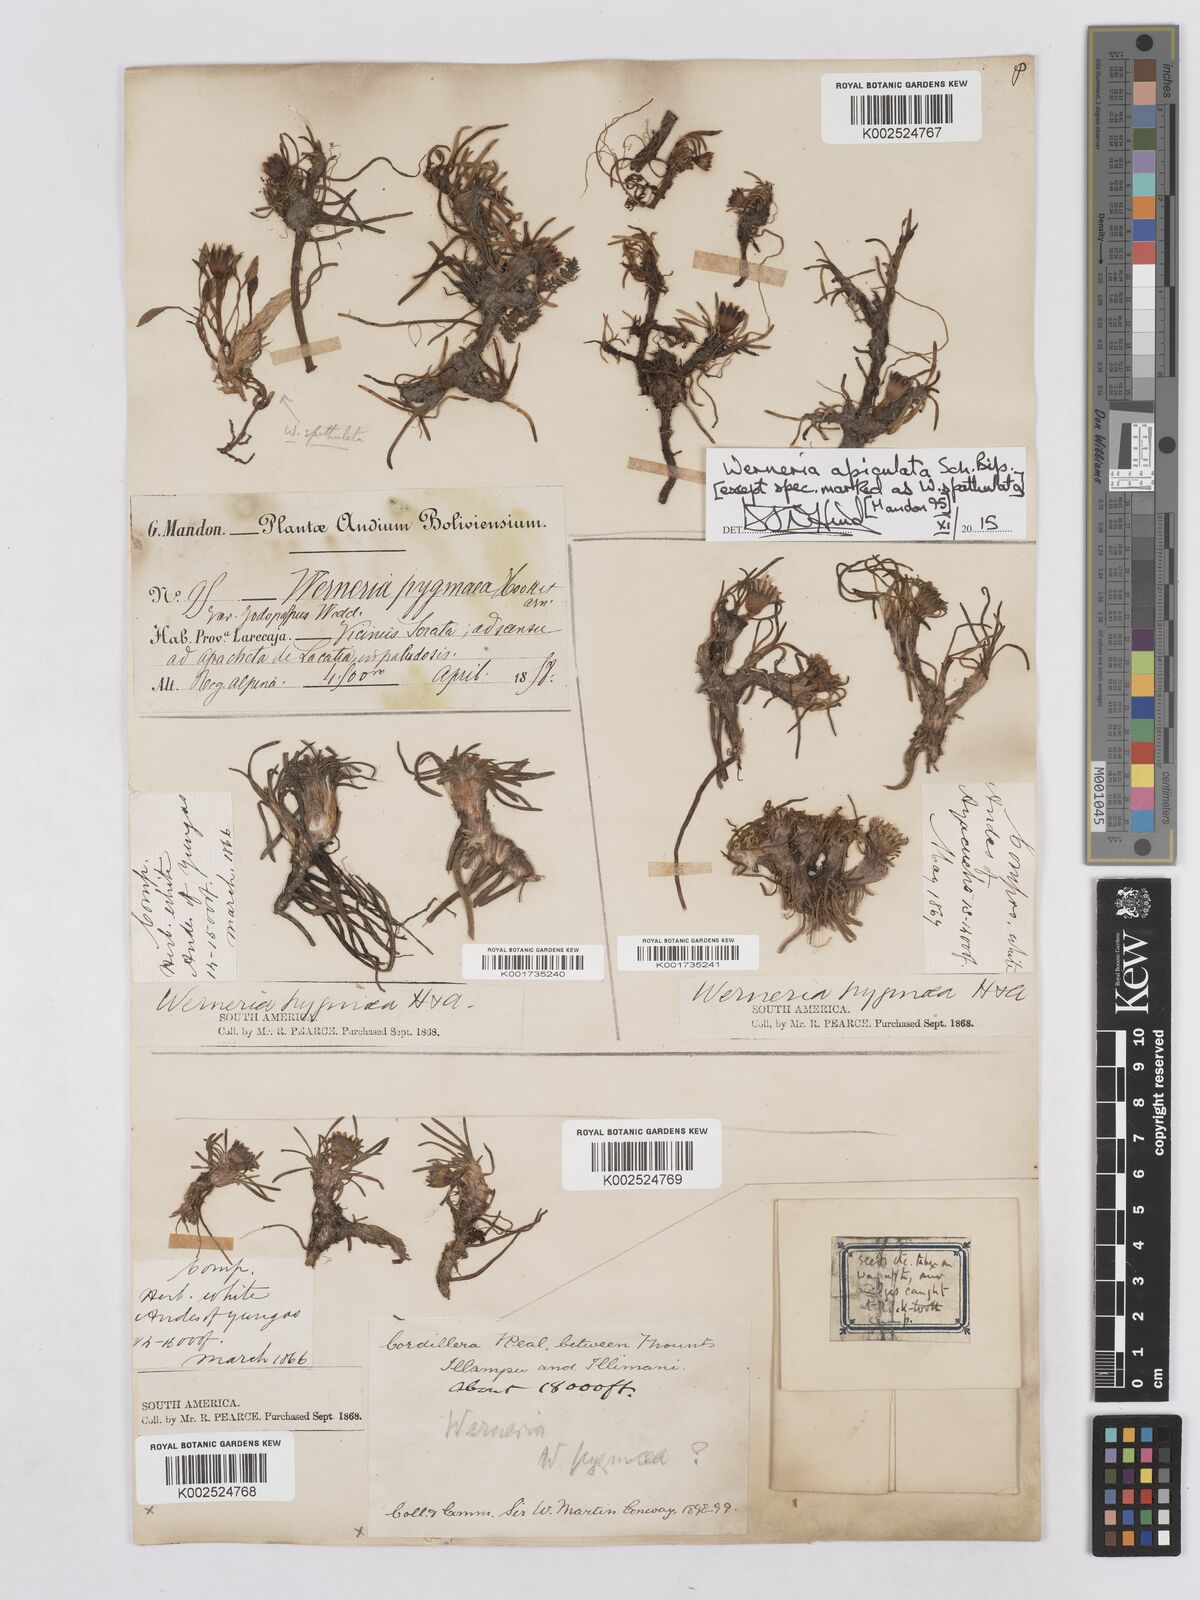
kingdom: Plantae
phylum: Tracheophyta
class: Magnoliopsida
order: Asterales
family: Asteraceae
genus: Rockhausenia
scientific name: Rockhausenia apiculata
